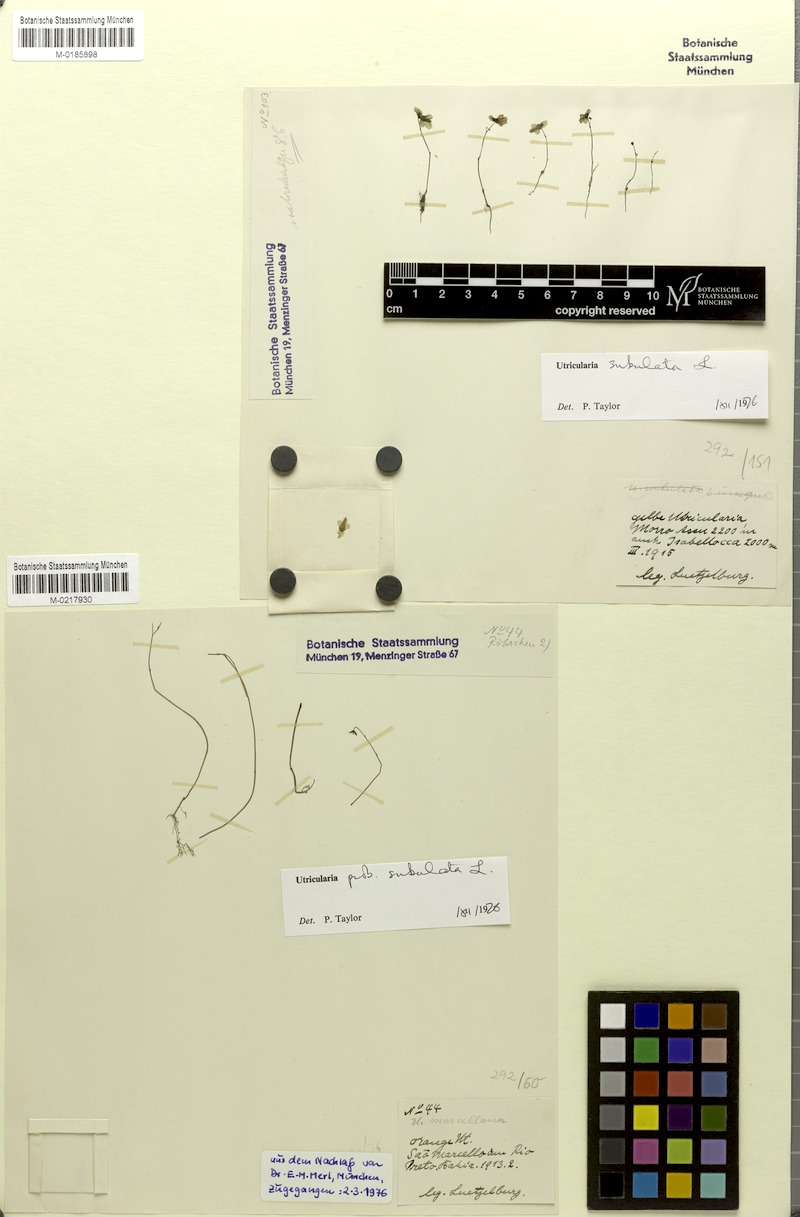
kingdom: Plantae
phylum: Tracheophyta
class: Magnoliopsida
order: Lamiales
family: Lentibulariaceae
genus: Utricularia
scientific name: Utricularia subulata
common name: Tiny bladderwort
